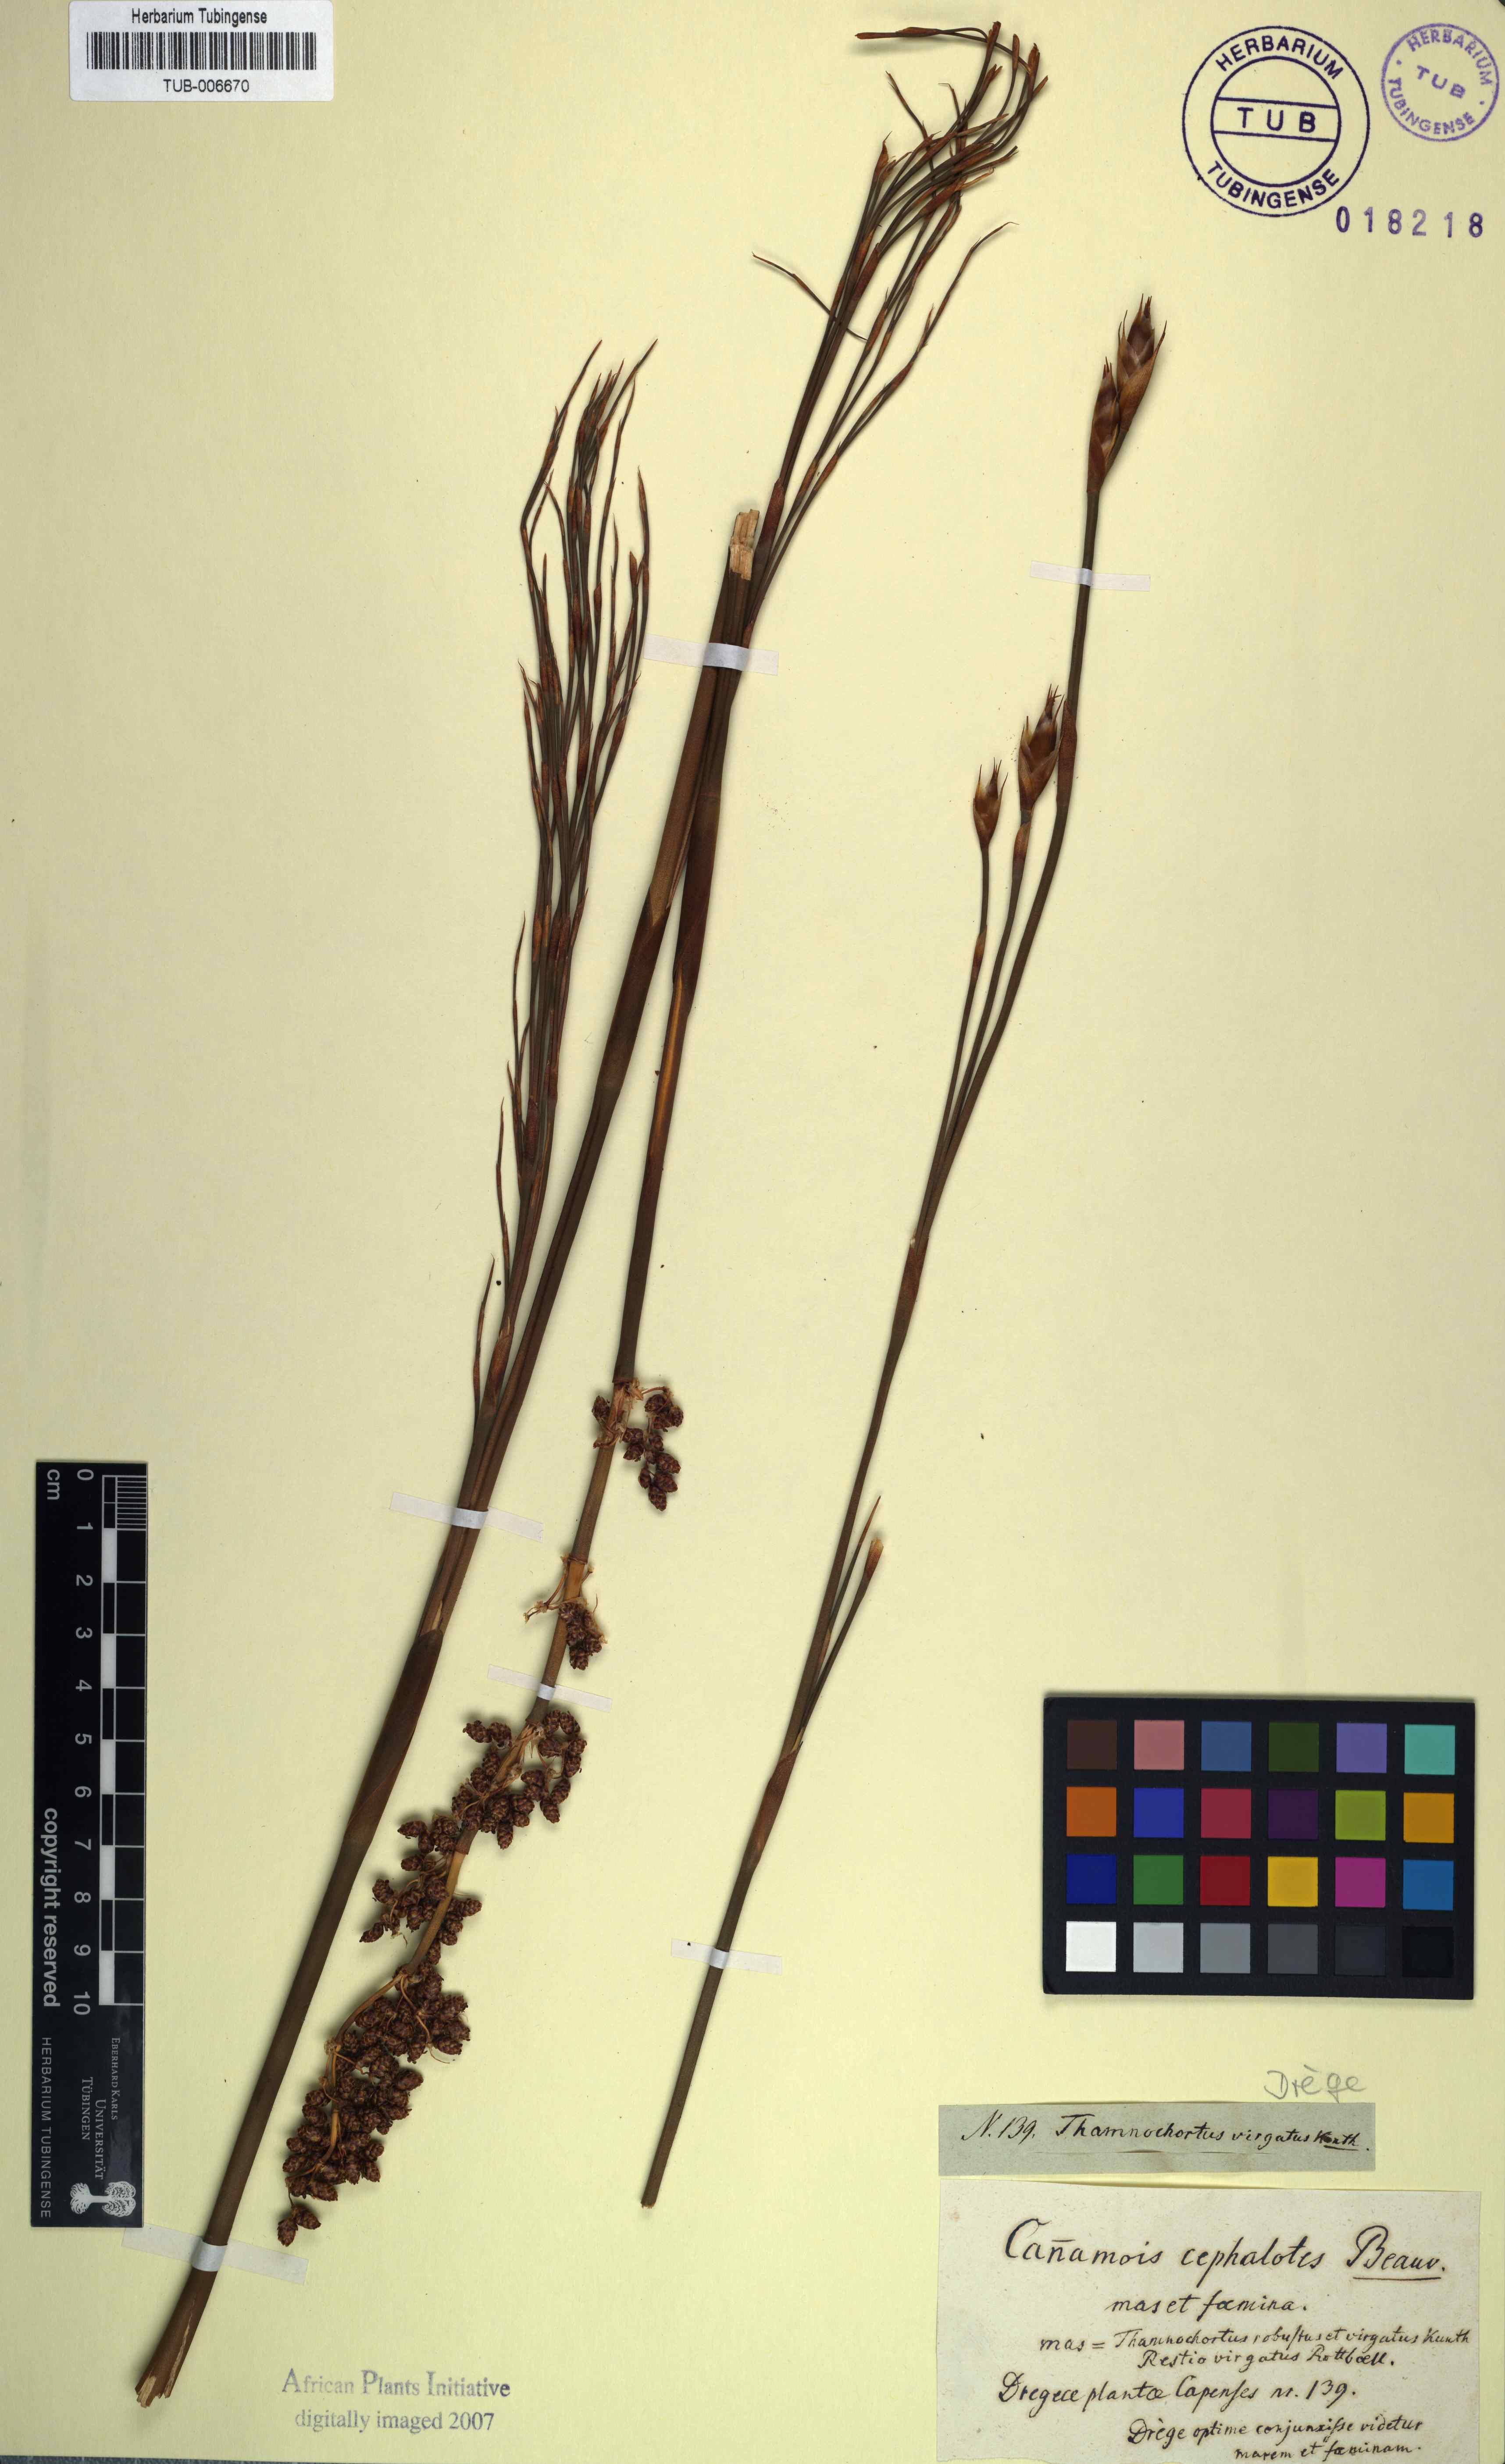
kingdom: Plantae
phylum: Tracheophyta
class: Liliopsida
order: Poales
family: Restionaceae
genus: Cannomois
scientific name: Cannomois virgata
